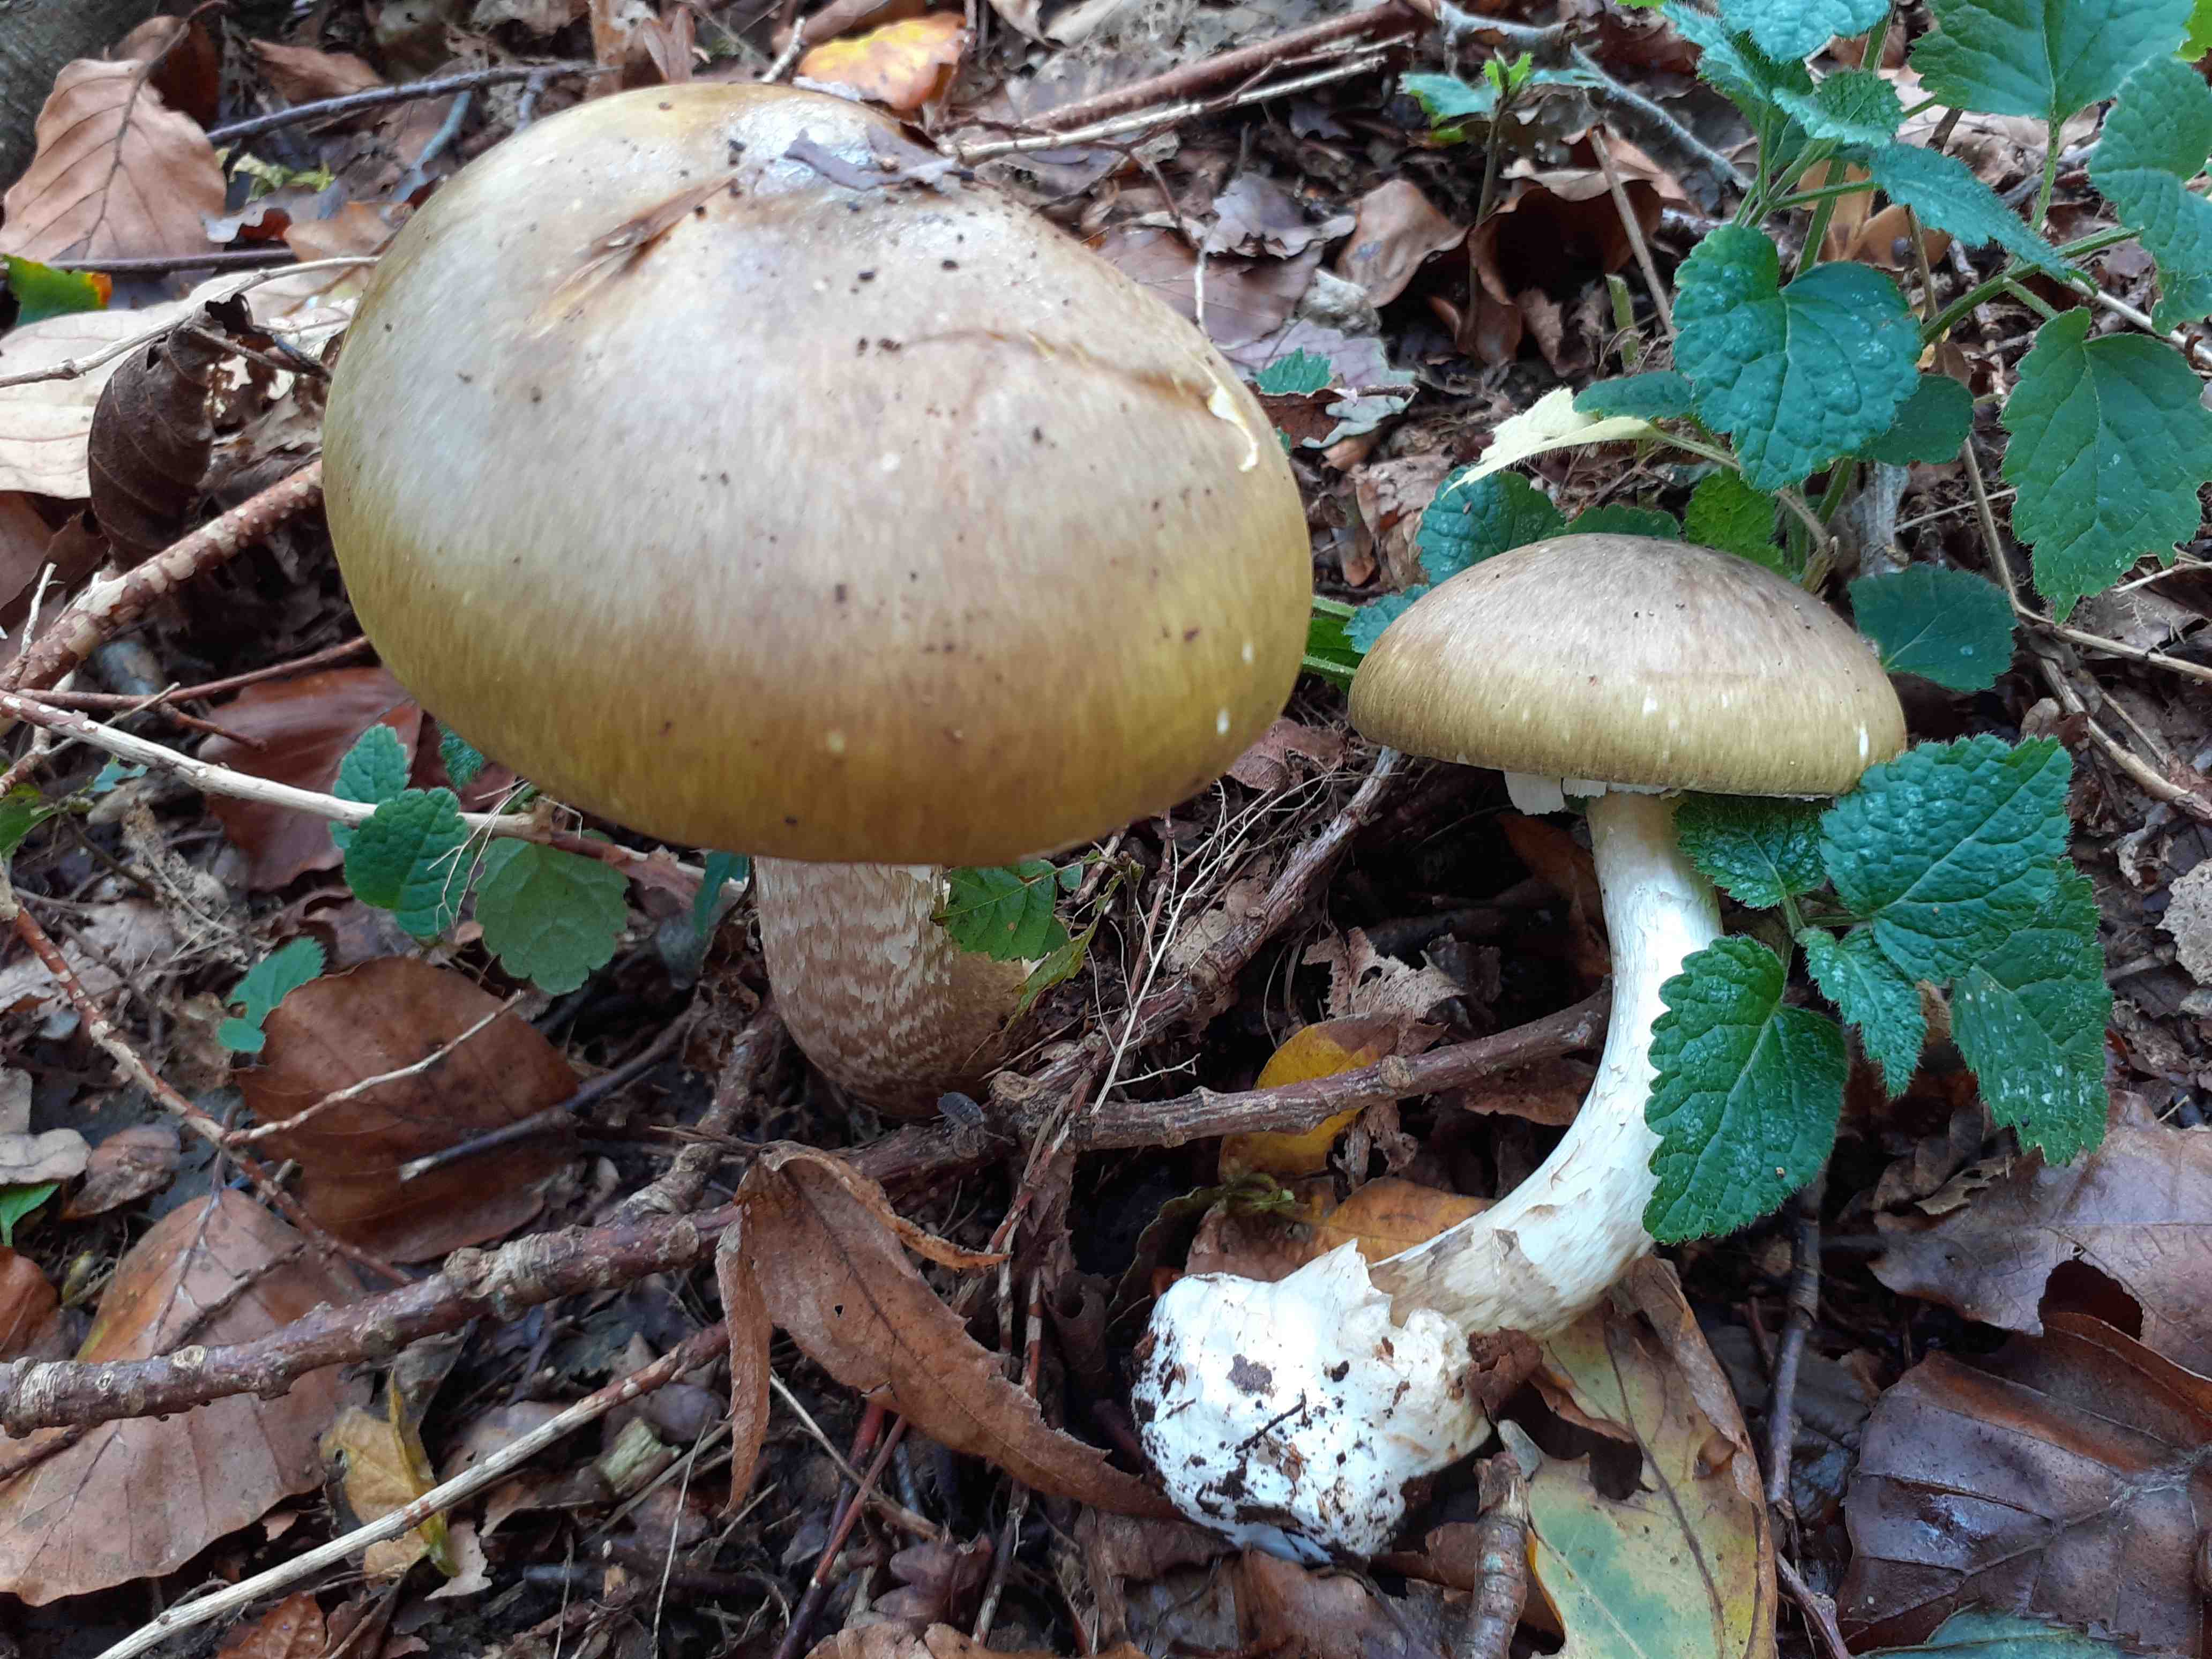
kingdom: Fungi
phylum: Basidiomycota
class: Agaricomycetes
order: Agaricales
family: Amanitaceae
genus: Amanita
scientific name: Amanita phalloides
